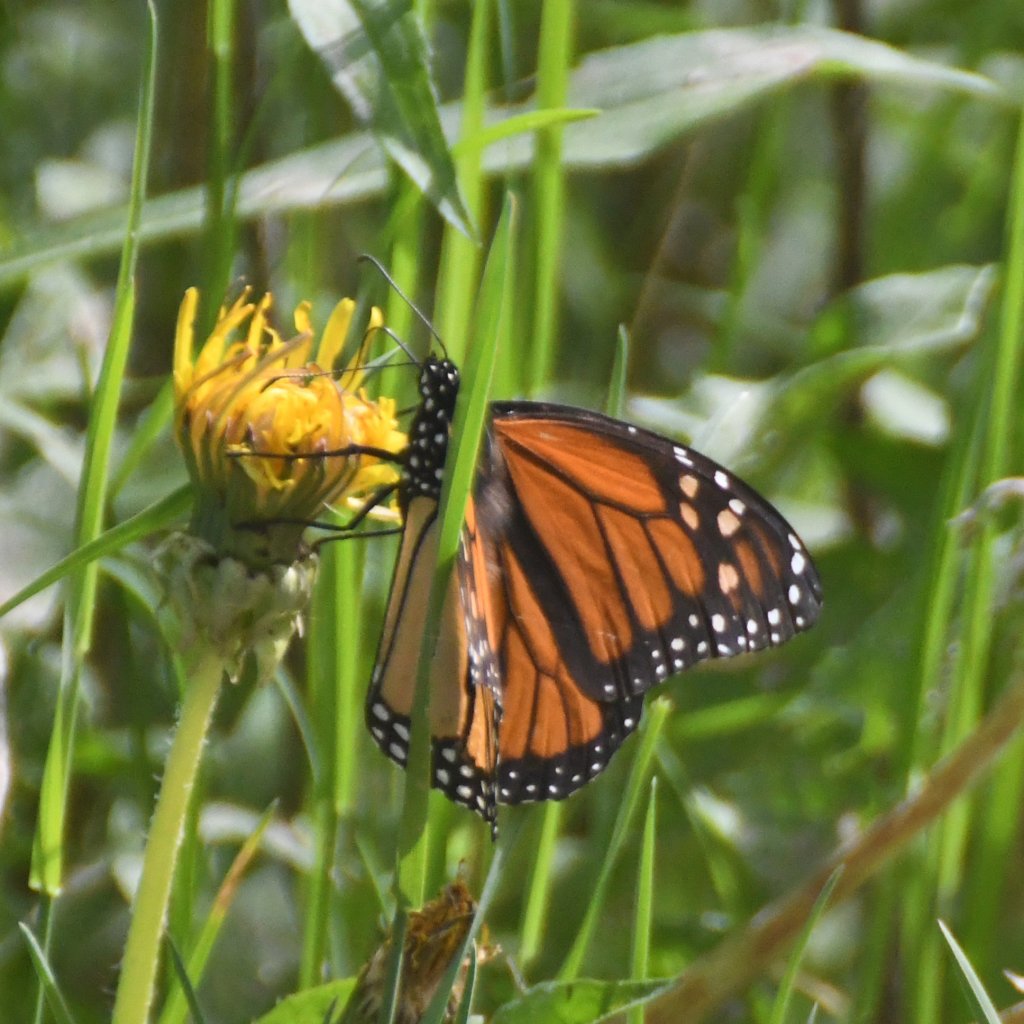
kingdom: Animalia
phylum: Arthropoda
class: Insecta
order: Lepidoptera
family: Nymphalidae
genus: Danaus
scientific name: Danaus plexippus
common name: Monarch
